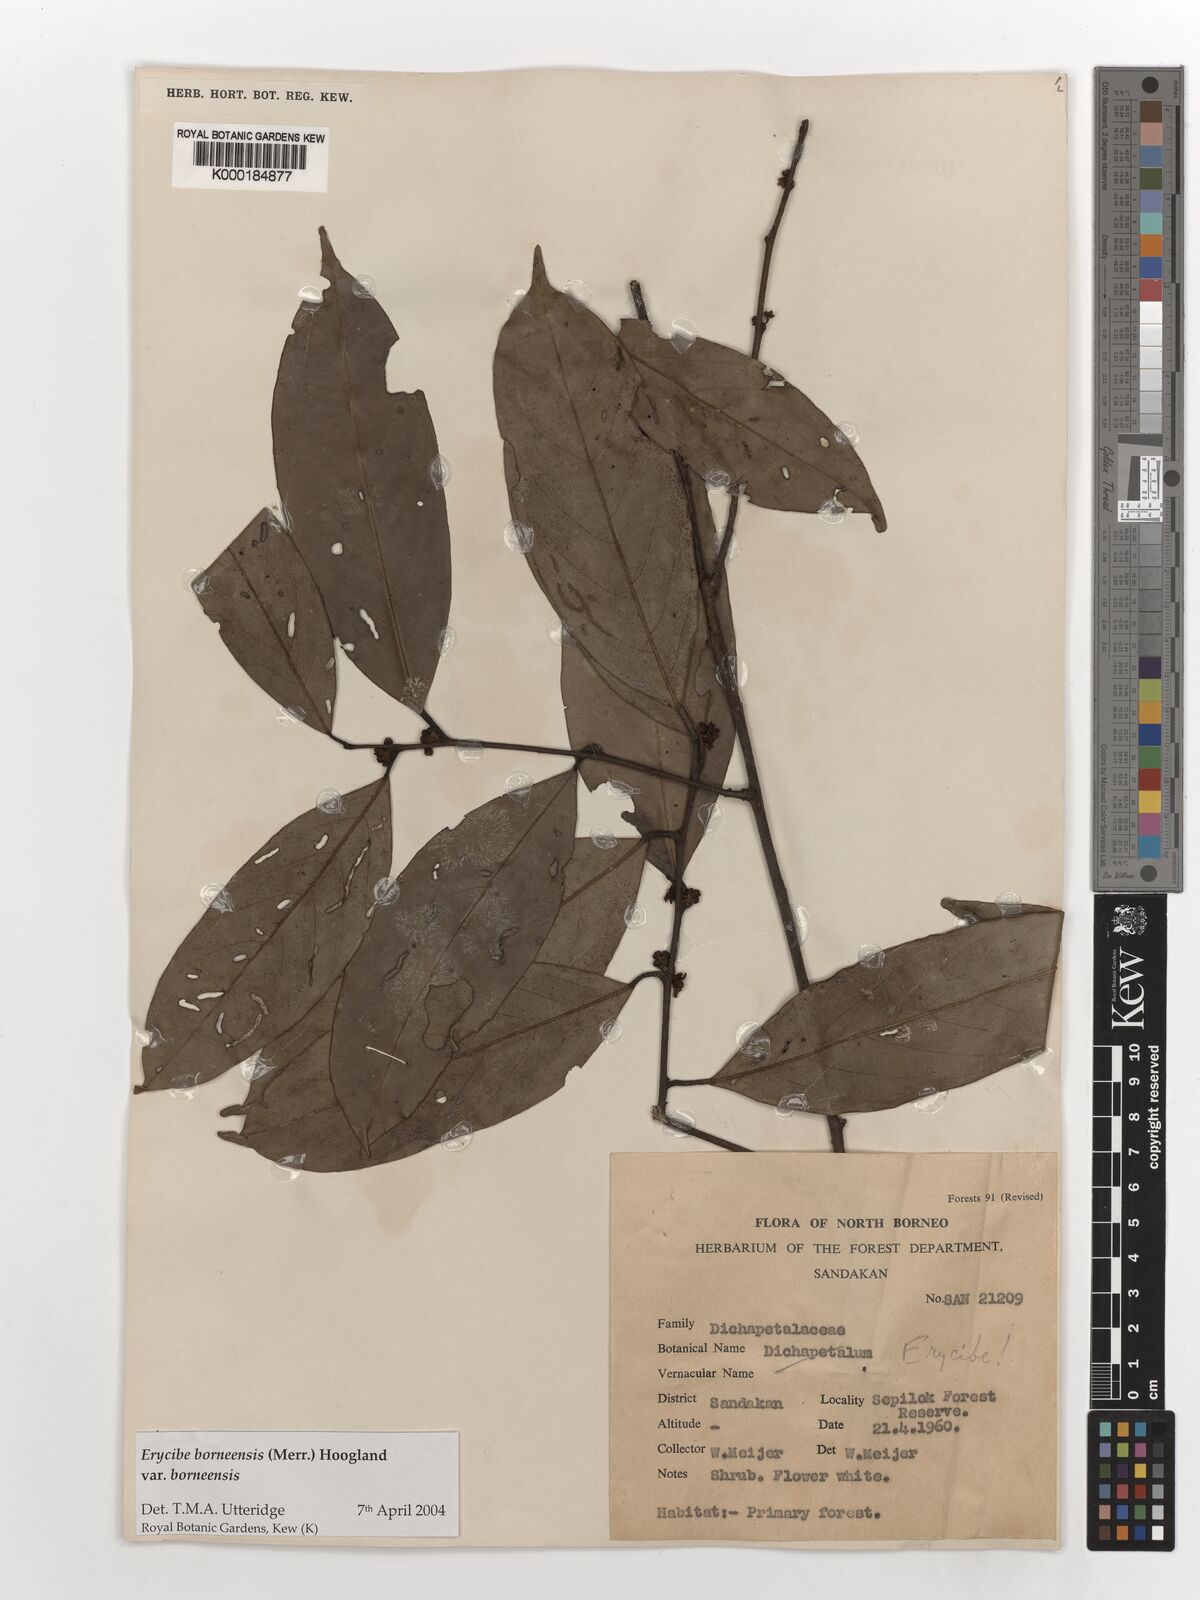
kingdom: Plantae
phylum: Tracheophyta
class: Magnoliopsida
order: Solanales
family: Convolvulaceae
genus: Erycibe
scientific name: Erycibe borneensis
